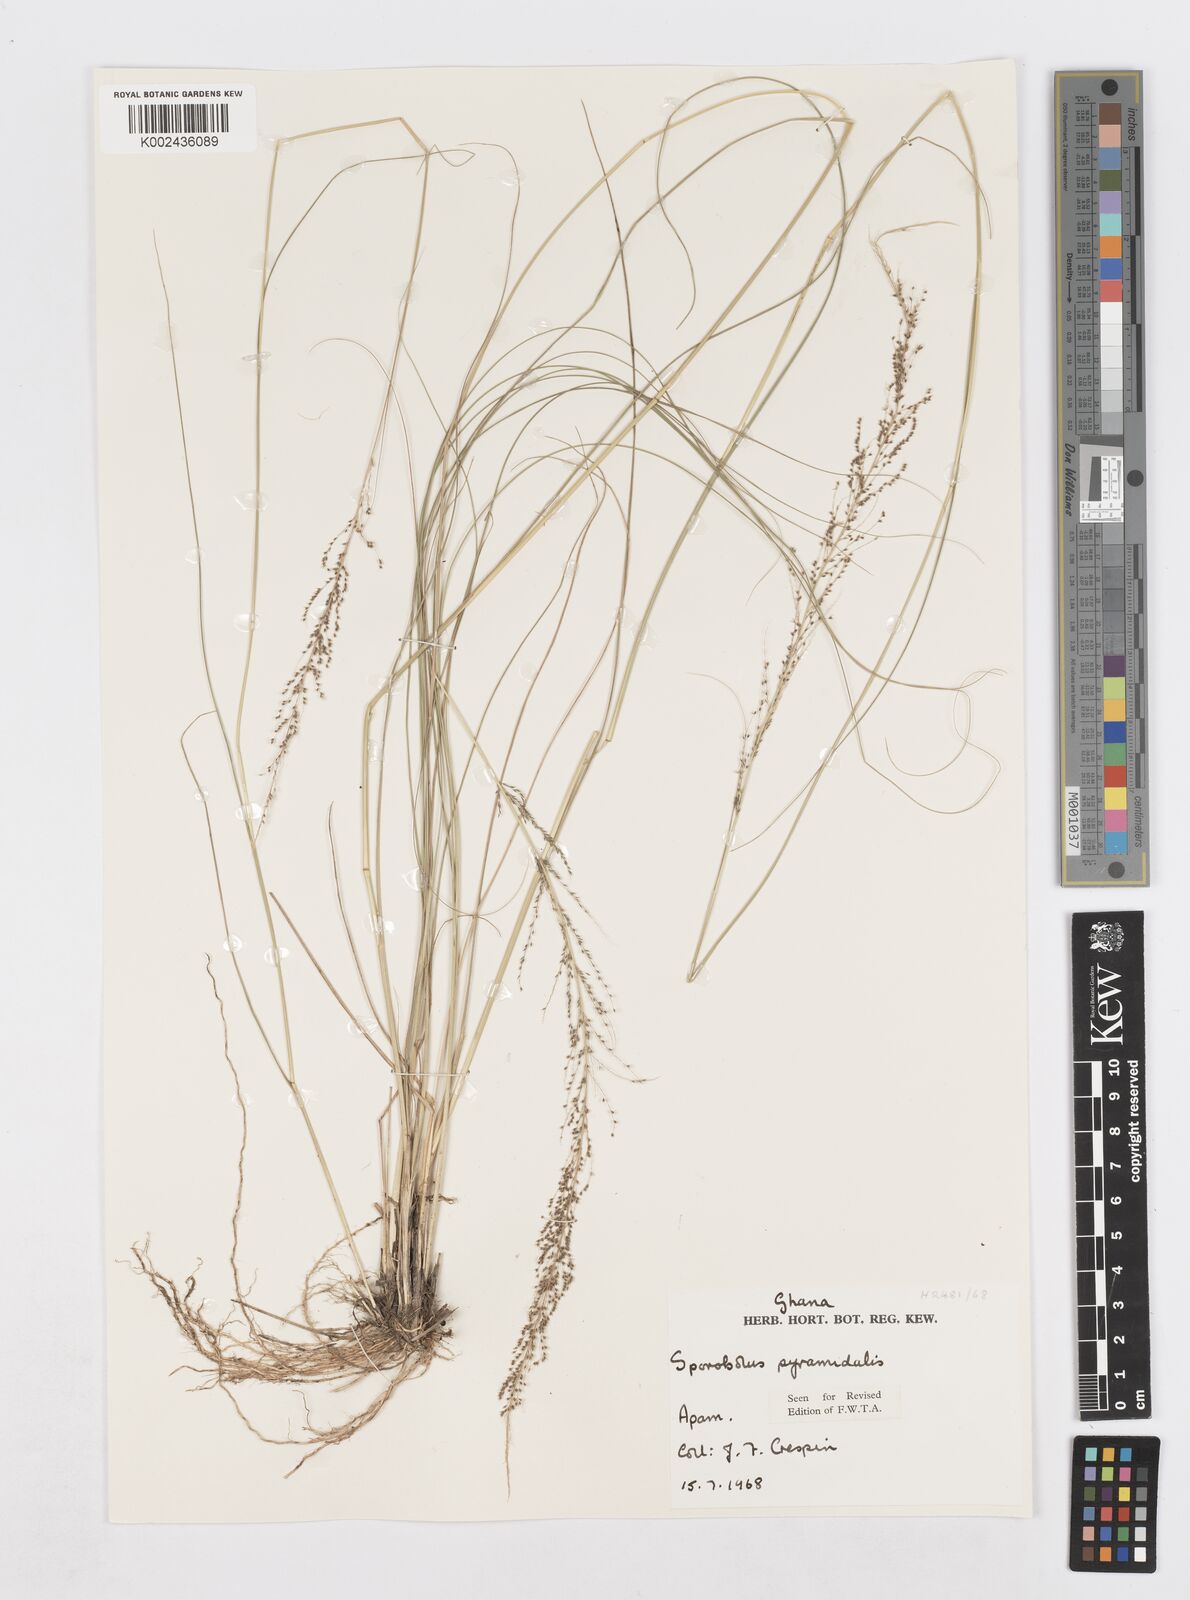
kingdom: Plantae
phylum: Tracheophyta
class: Liliopsida
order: Poales
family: Poaceae
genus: Sporobolus
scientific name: Sporobolus pyramidalis
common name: West indian dropseed
